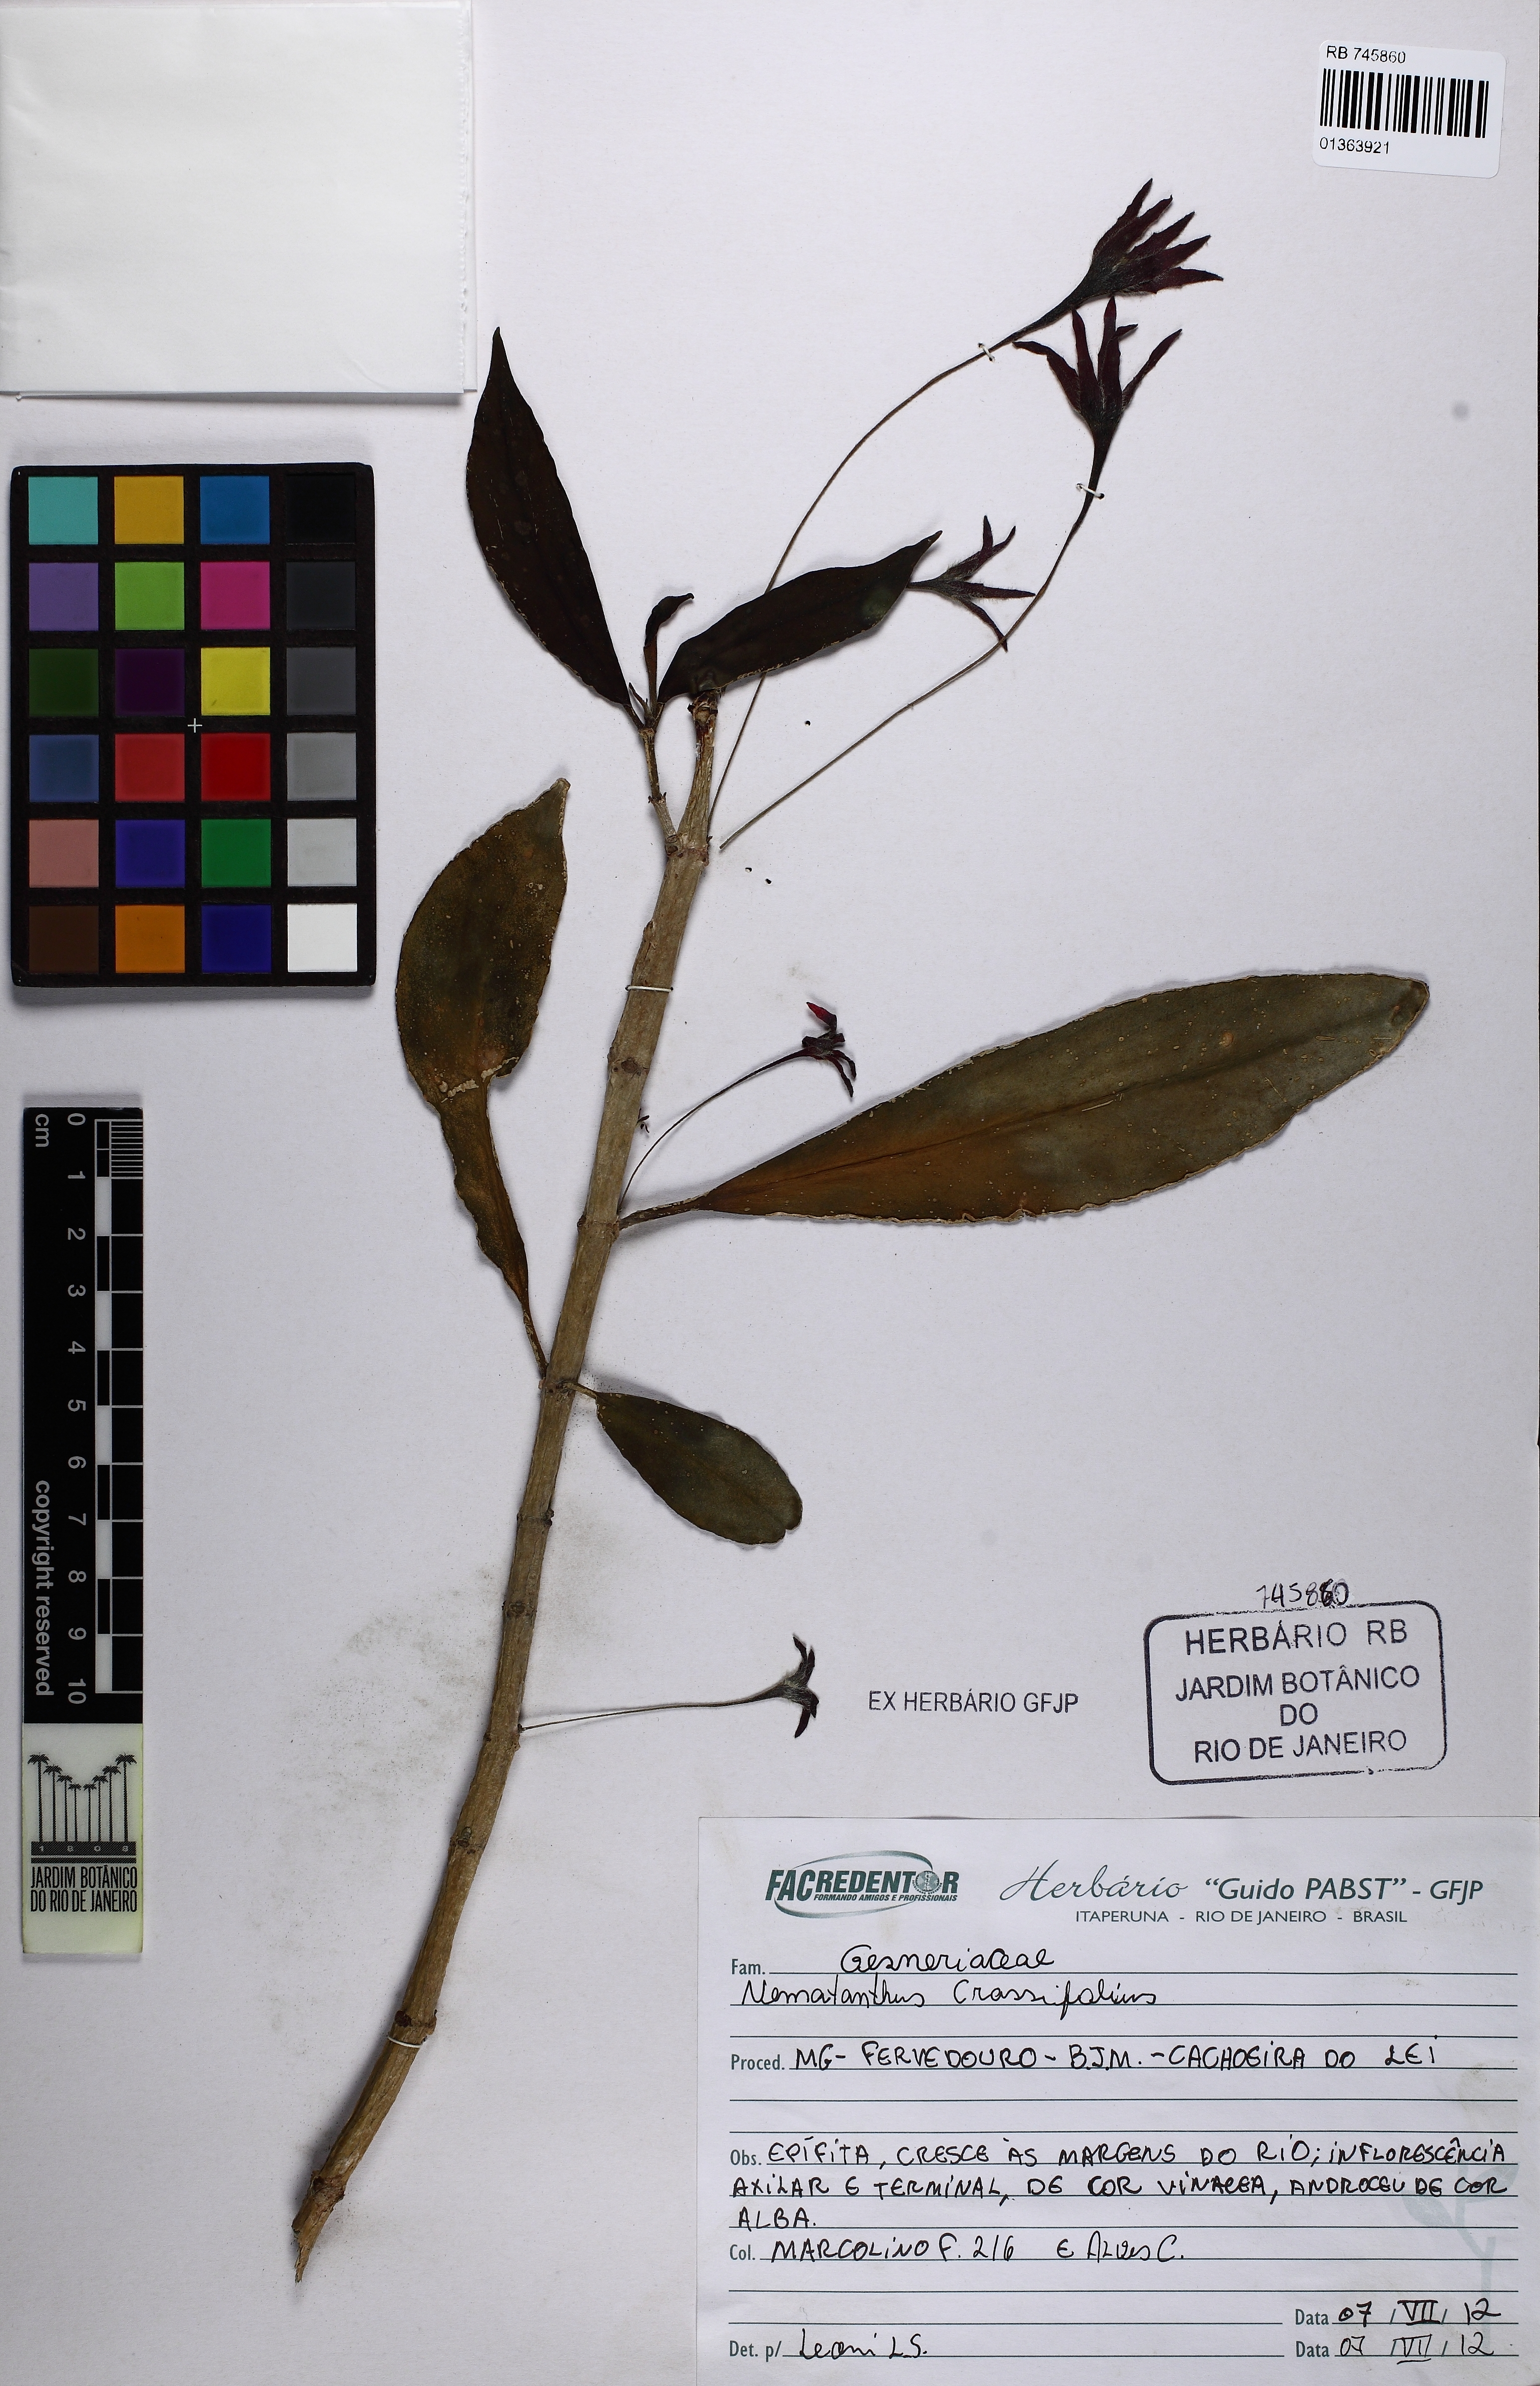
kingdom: Plantae
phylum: Tracheophyta
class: Magnoliopsida
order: Lamiales
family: Gesneriaceae
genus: Nematanthus
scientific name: Nematanthus crassifolius
